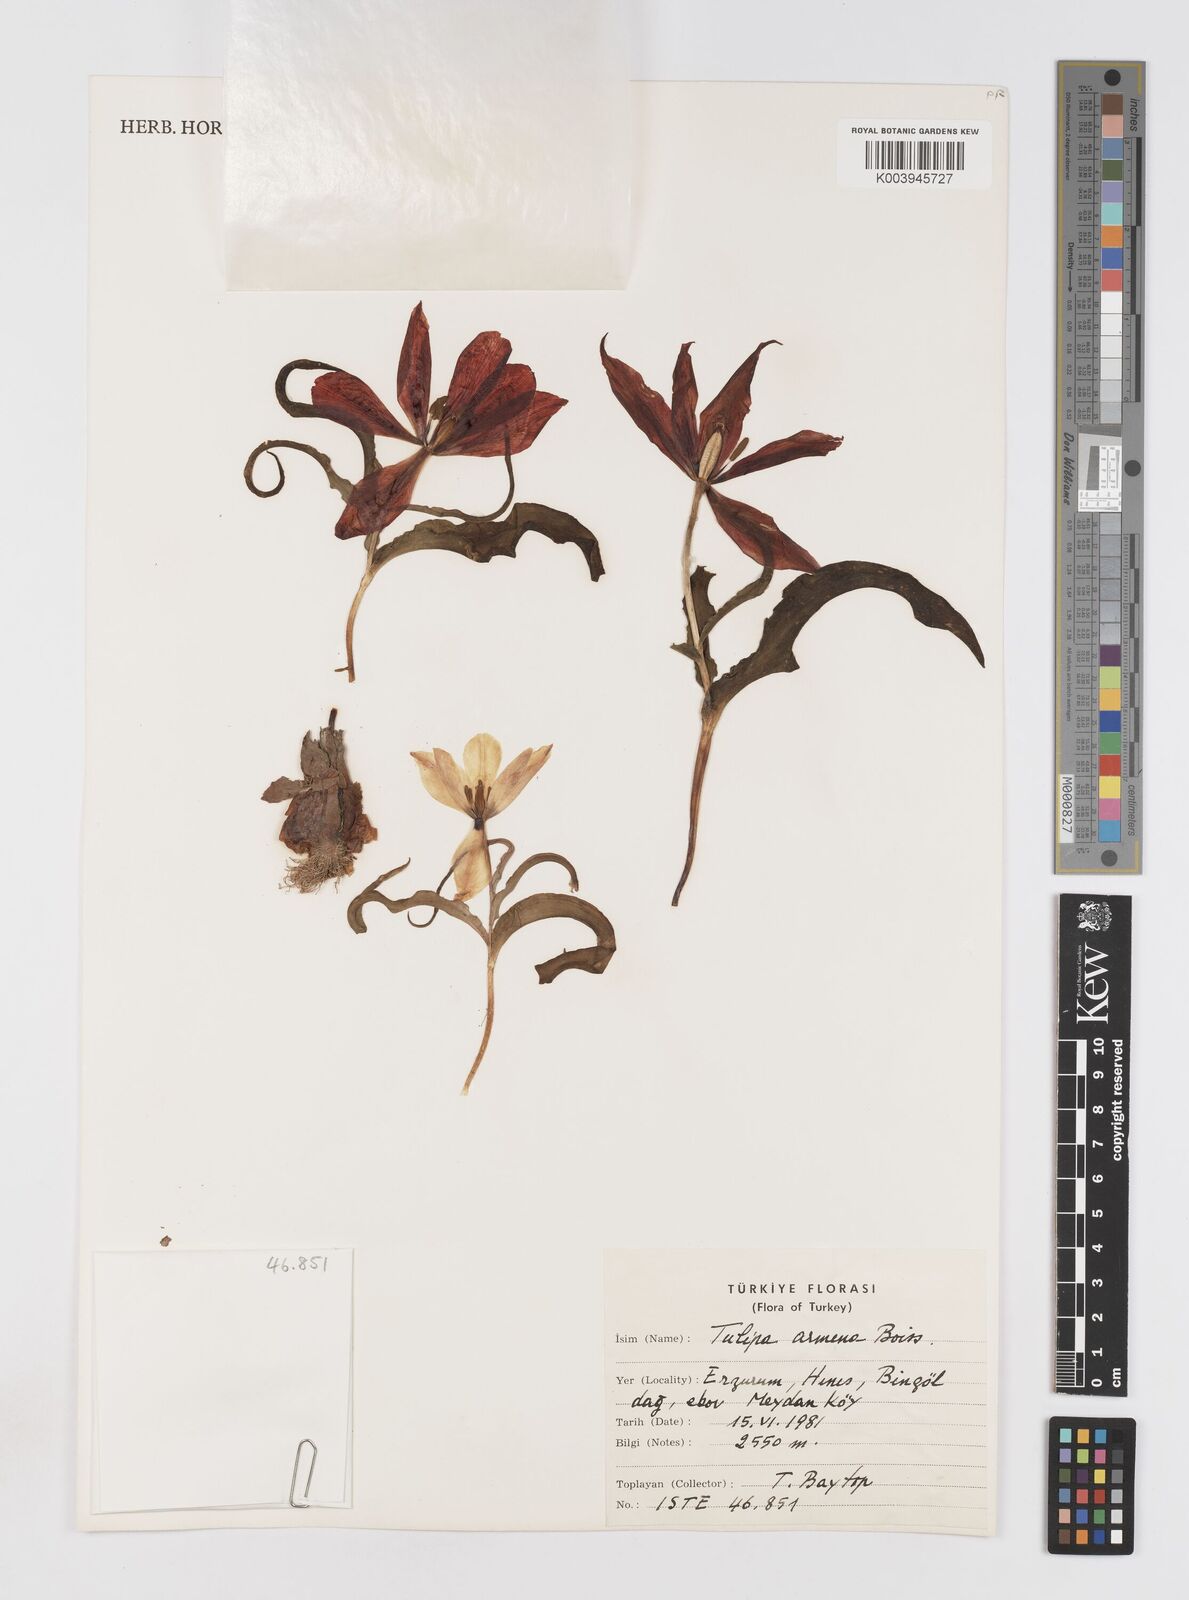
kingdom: Plantae
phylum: Tracheophyta
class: Liliopsida
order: Liliales
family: Liliaceae
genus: Tulipa
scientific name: Tulipa armena
